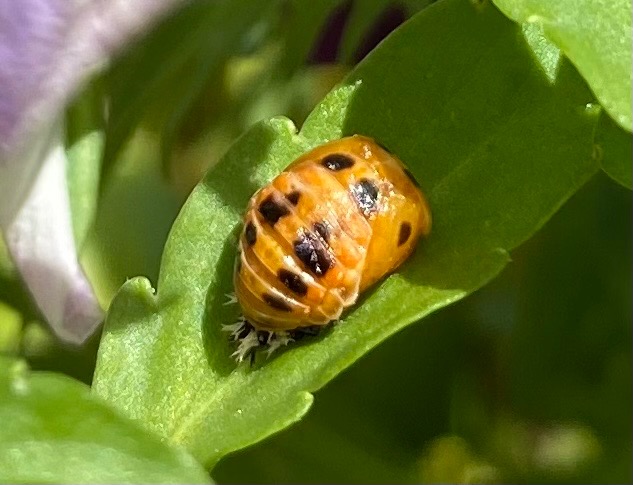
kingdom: Animalia
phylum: Arthropoda
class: Insecta
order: Coleoptera
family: Coccinellidae
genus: Harmonia
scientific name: Harmonia axyridis
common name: Harlekinmariehøne
